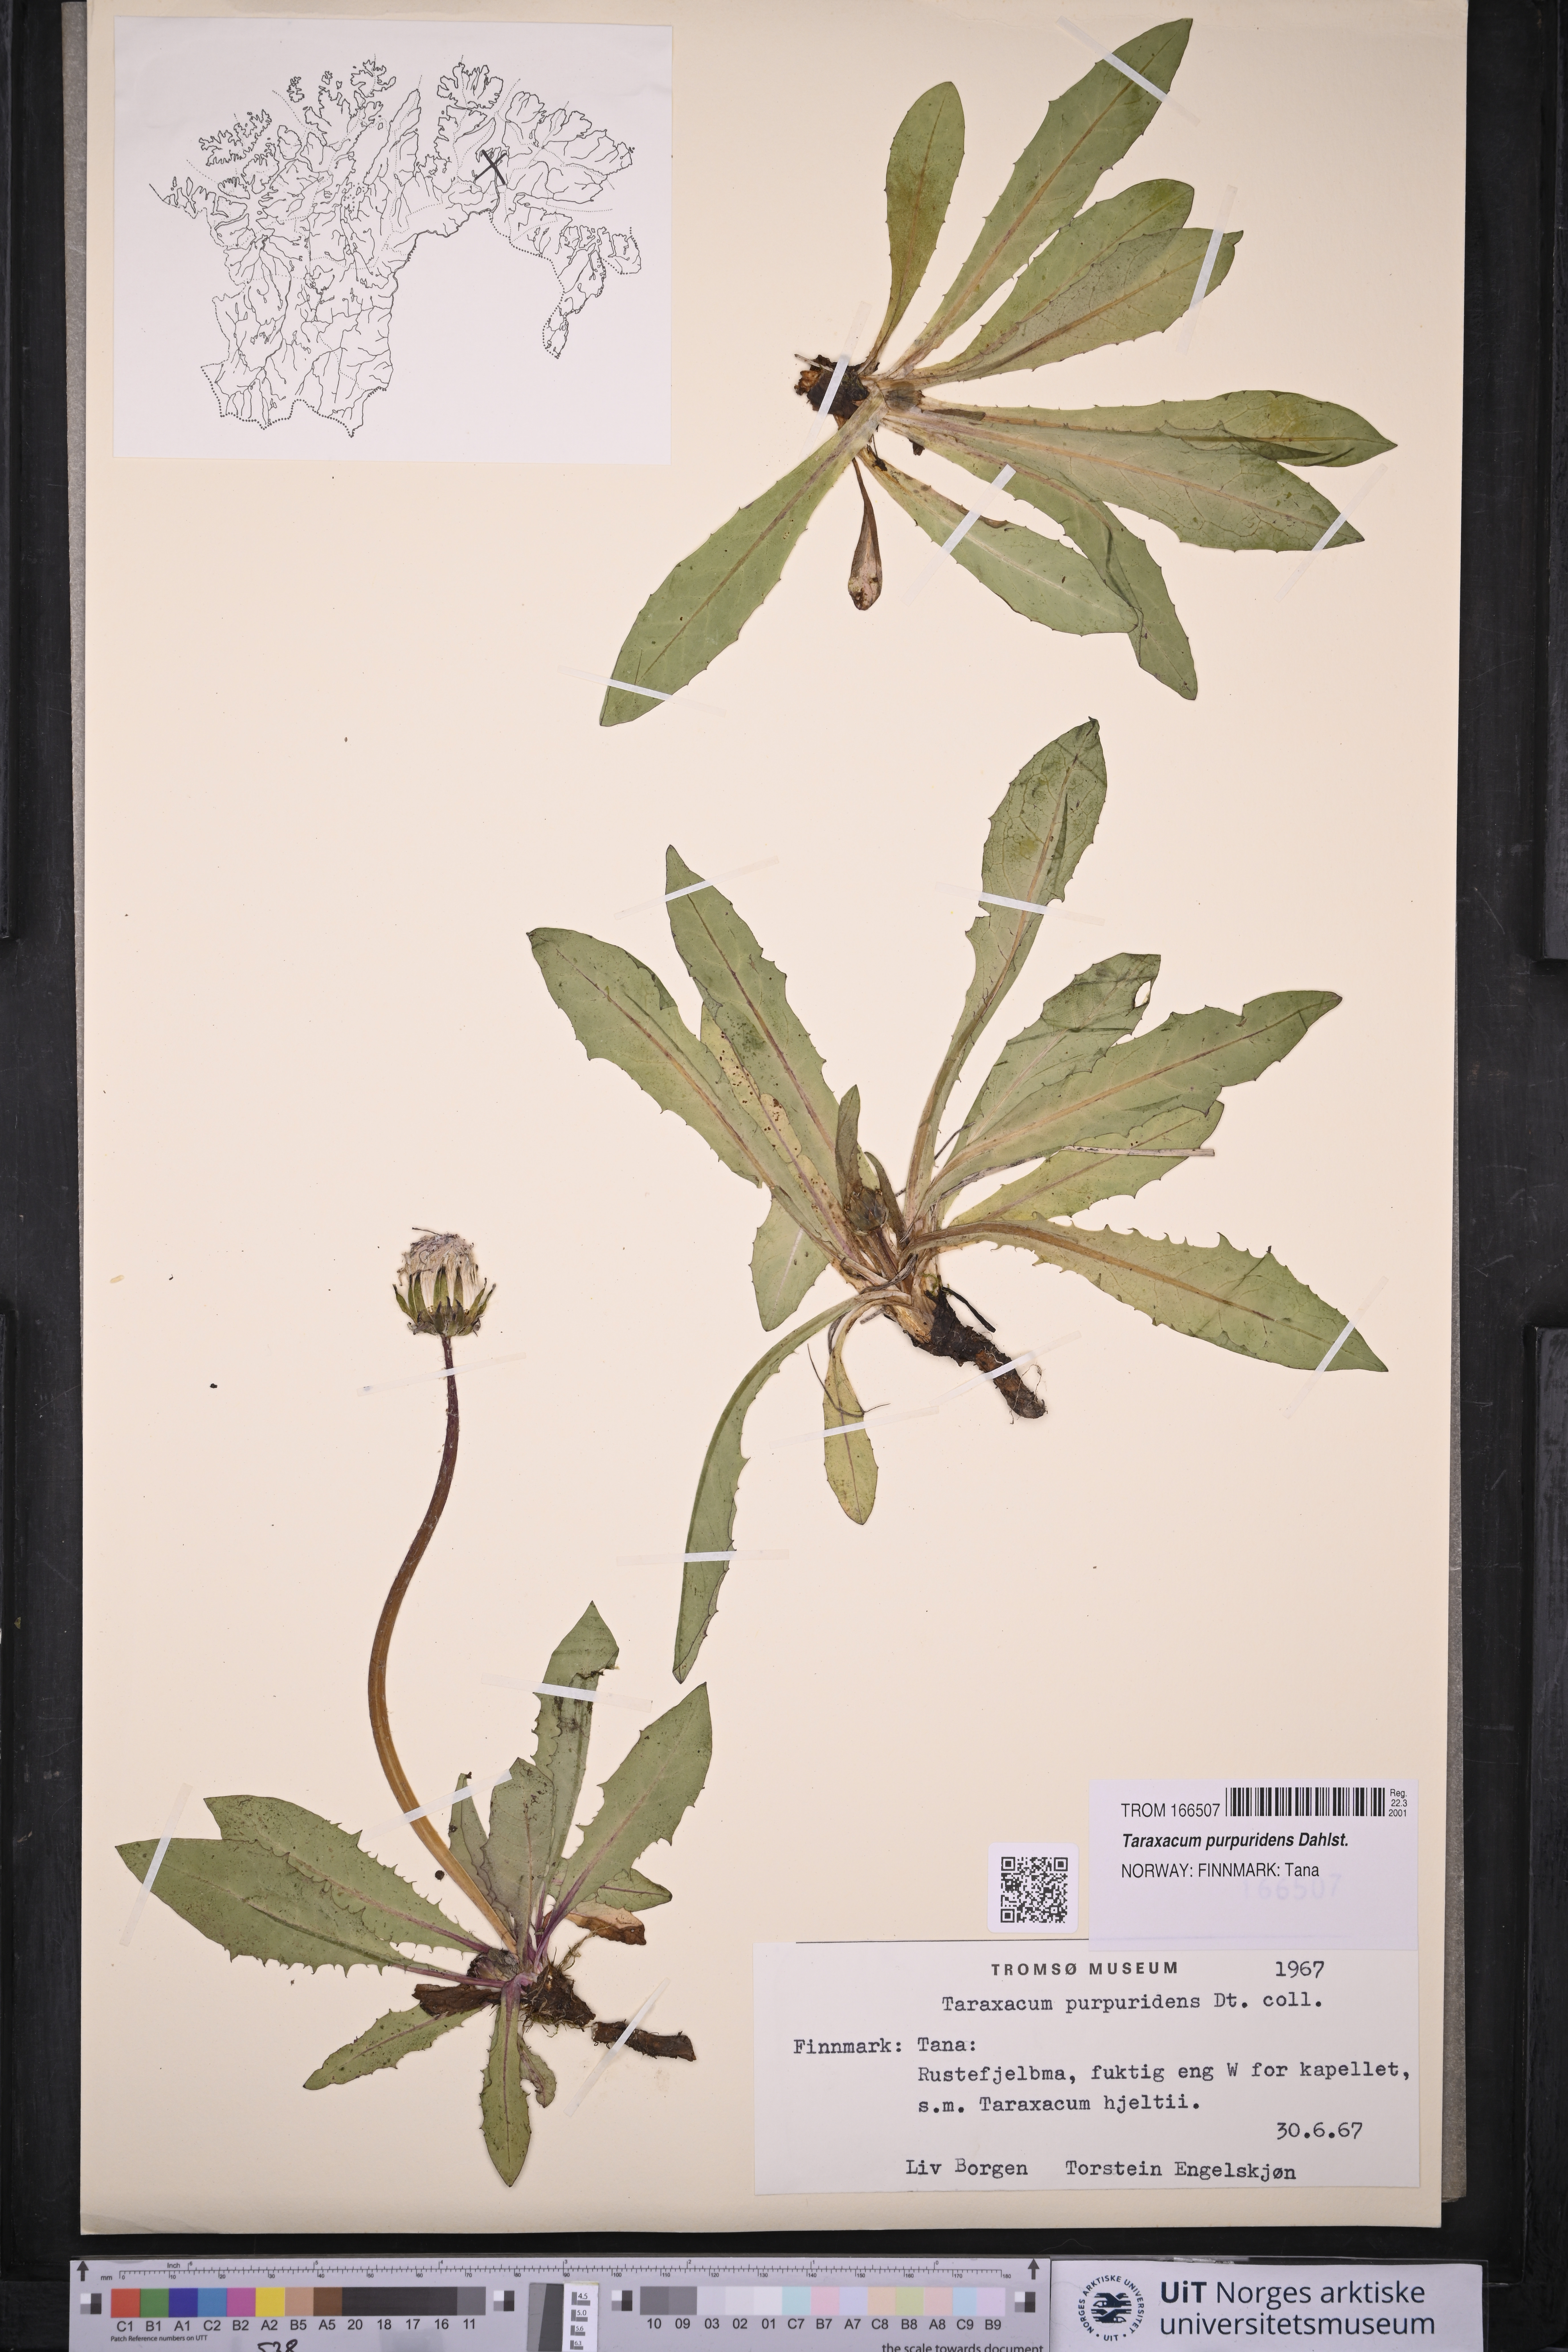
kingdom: Plantae
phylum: Tracheophyta
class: Magnoliopsida
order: Asterales
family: Asteraceae
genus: Taraxacum
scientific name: Taraxacum purpuridens
